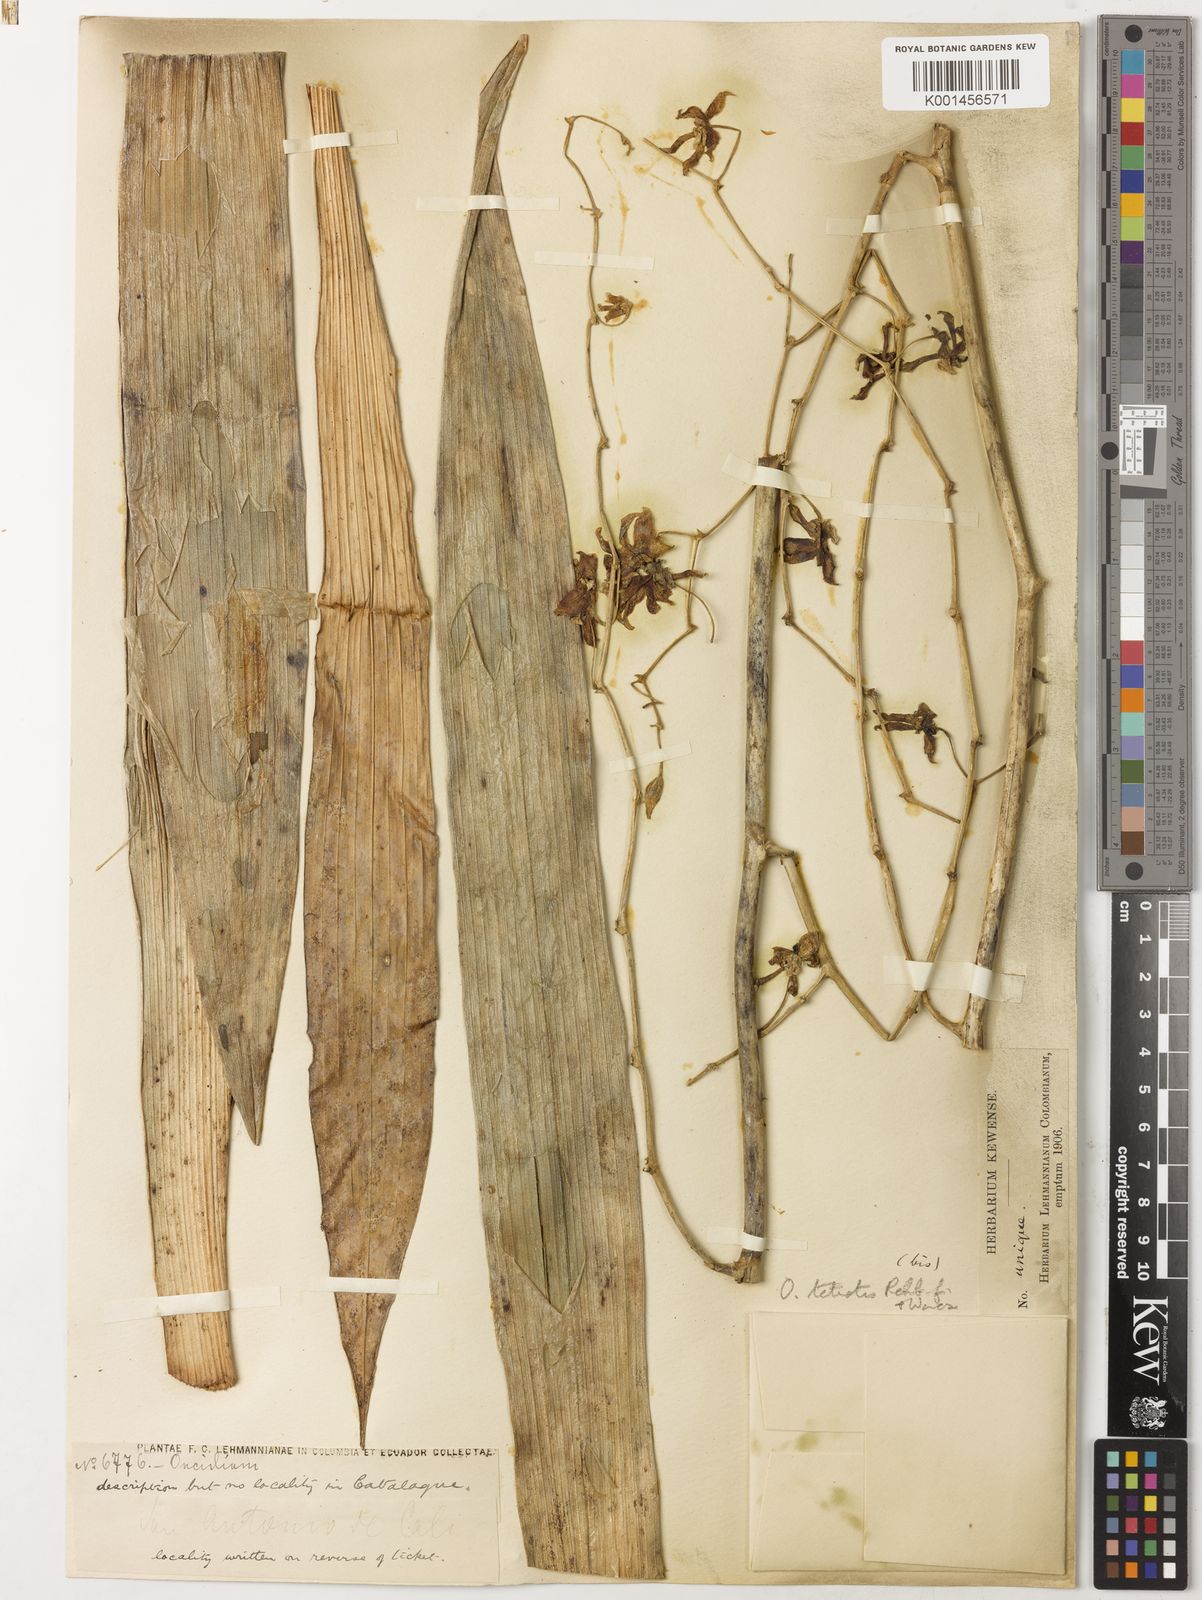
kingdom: Plantae
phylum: Tracheophyta
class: Liliopsida
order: Asparagales
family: Orchidaceae
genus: Oncidium
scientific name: Oncidium tetrotis
